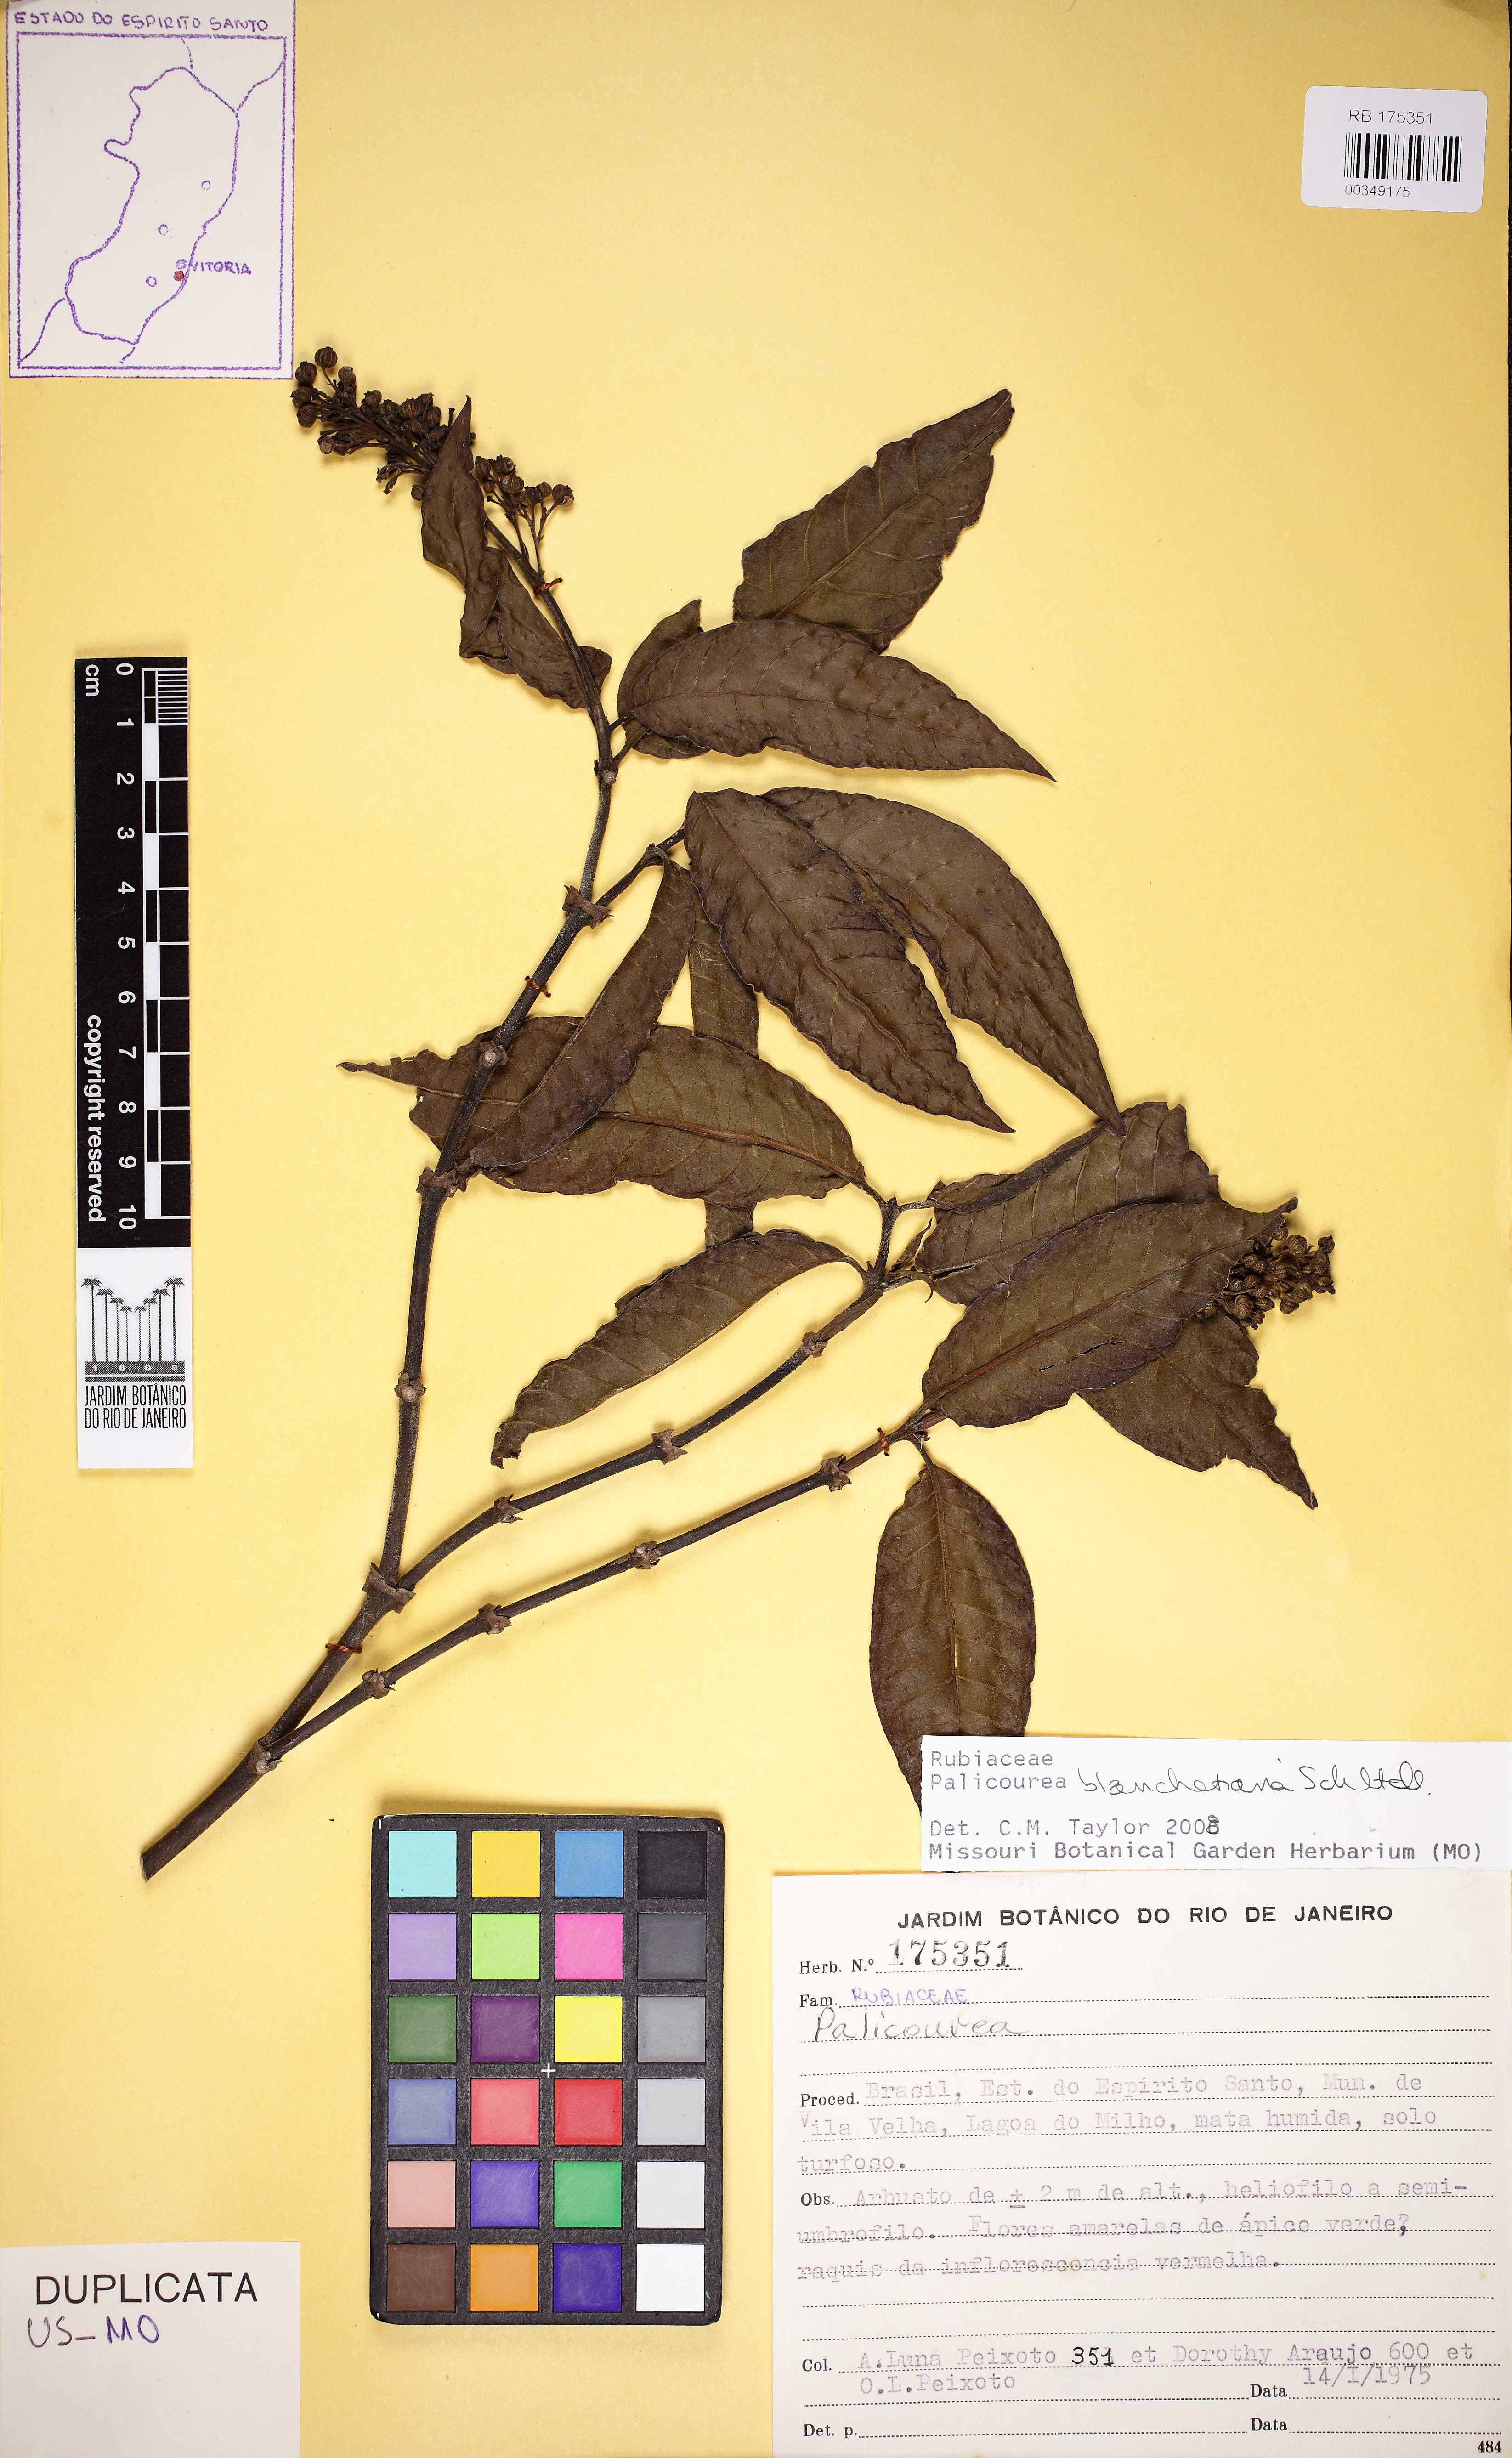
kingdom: Plantae
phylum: Tracheophyta
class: Magnoliopsida
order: Gentianales
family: Rubiaceae
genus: Palicourea
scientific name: Palicourea blanchetiana
